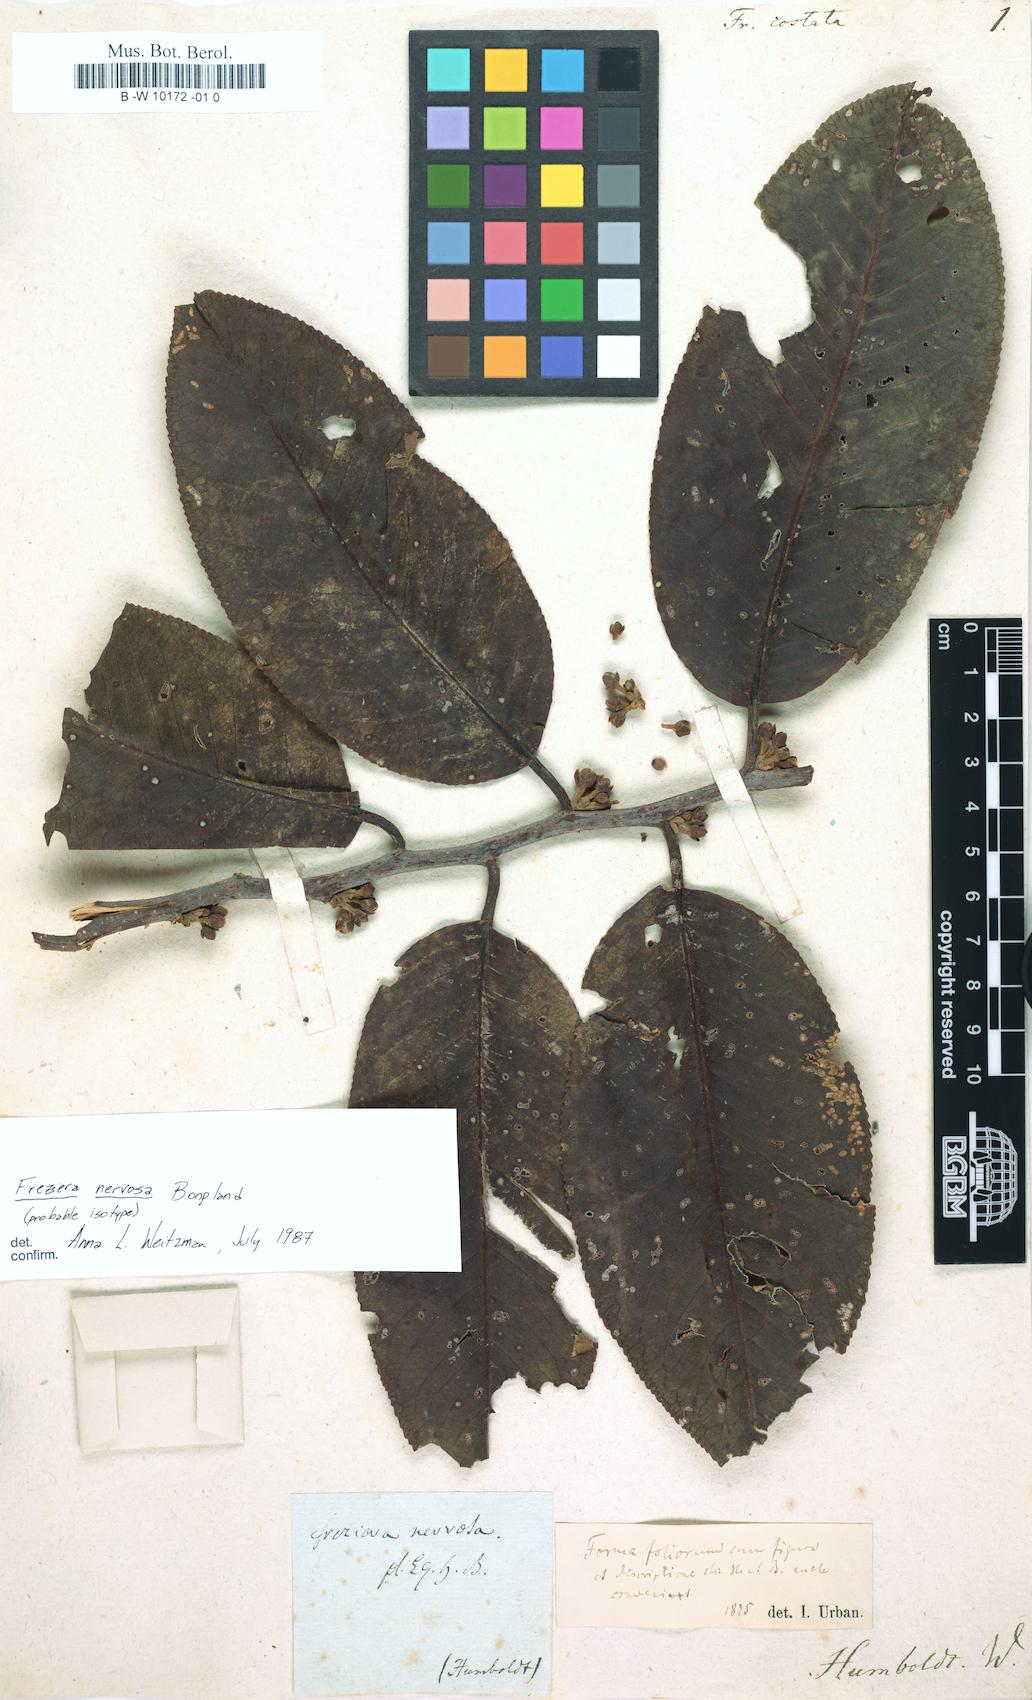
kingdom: Plantae
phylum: Tracheophyta
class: Magnoliopsida
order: Ericales
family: Pentaphylacaceae
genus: Freziera
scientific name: Freziera
